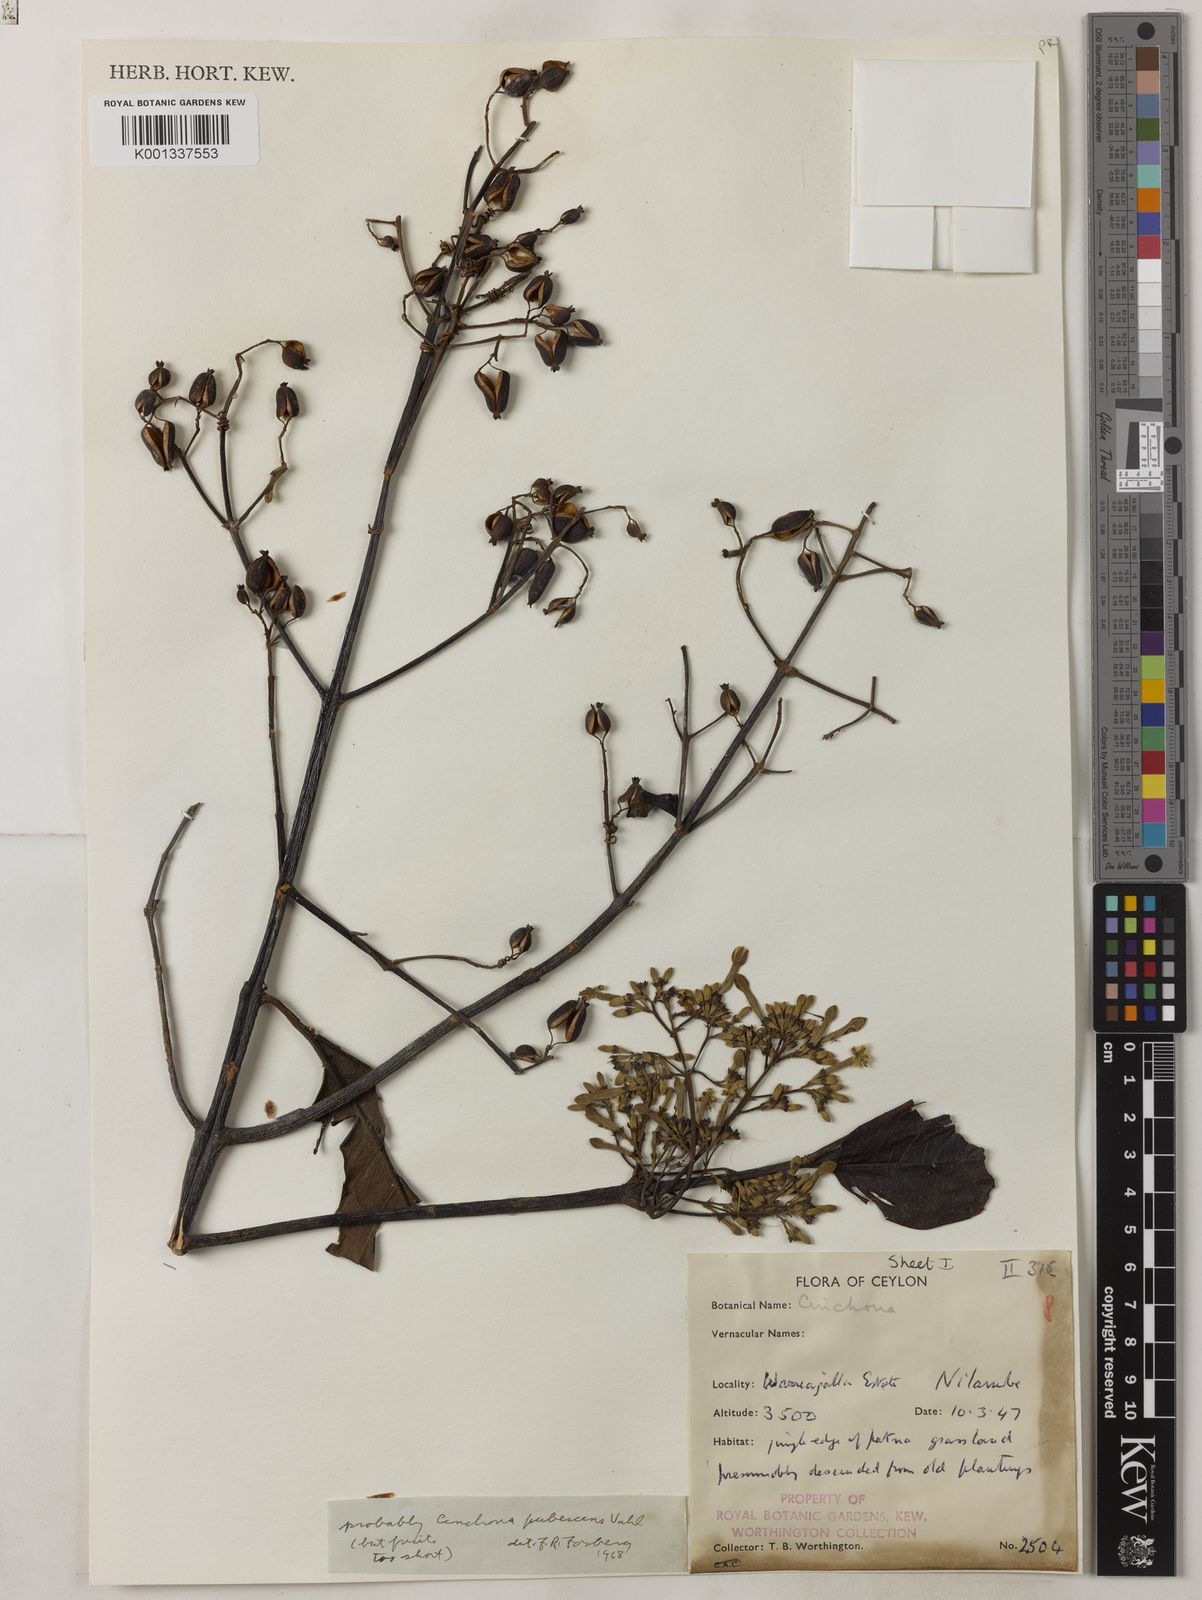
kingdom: Plantae
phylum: Tracheophyta
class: Magnoliopsida
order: Gentianales
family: Rubiaceae
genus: Cinchona
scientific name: Cinchona pubescens
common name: Quinine
